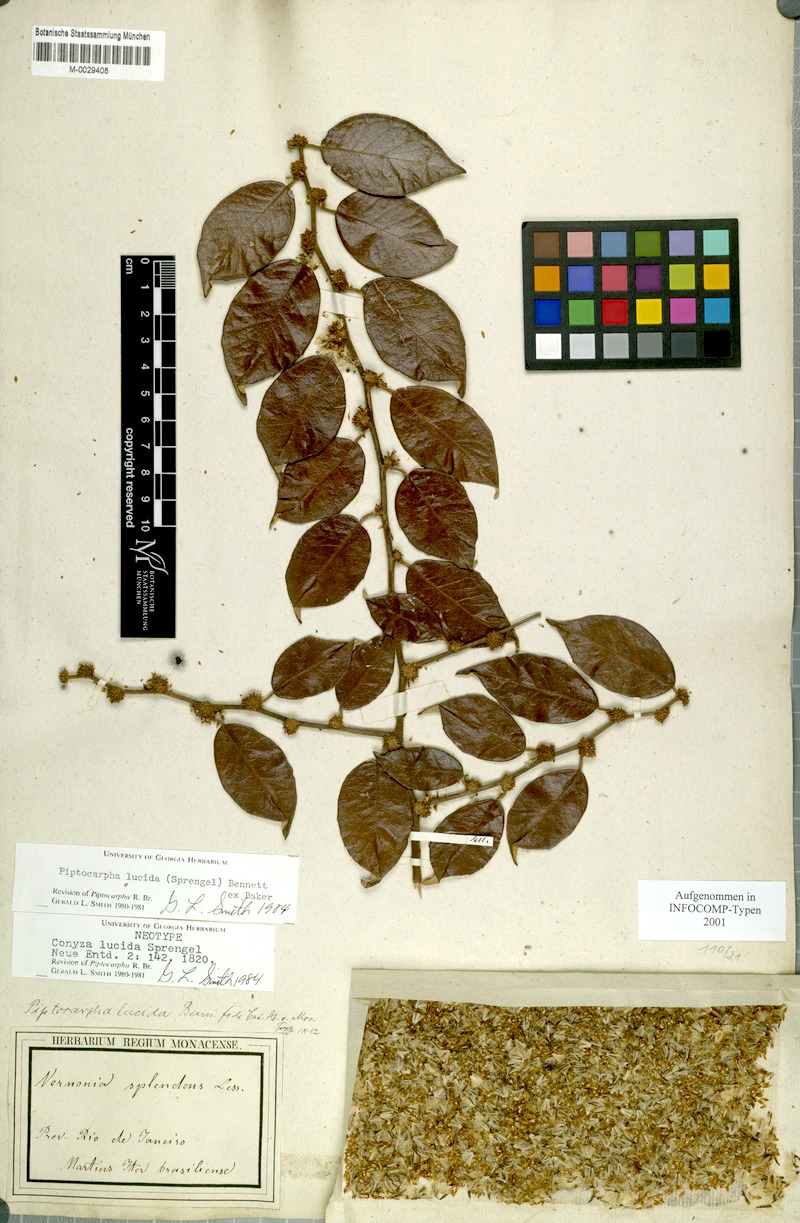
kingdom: Plantae
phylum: Tracheophyta
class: Magnoliopsida
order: Asterales
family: Asteraceae
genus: Piptocarpha
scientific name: Piptocarpha lucida
